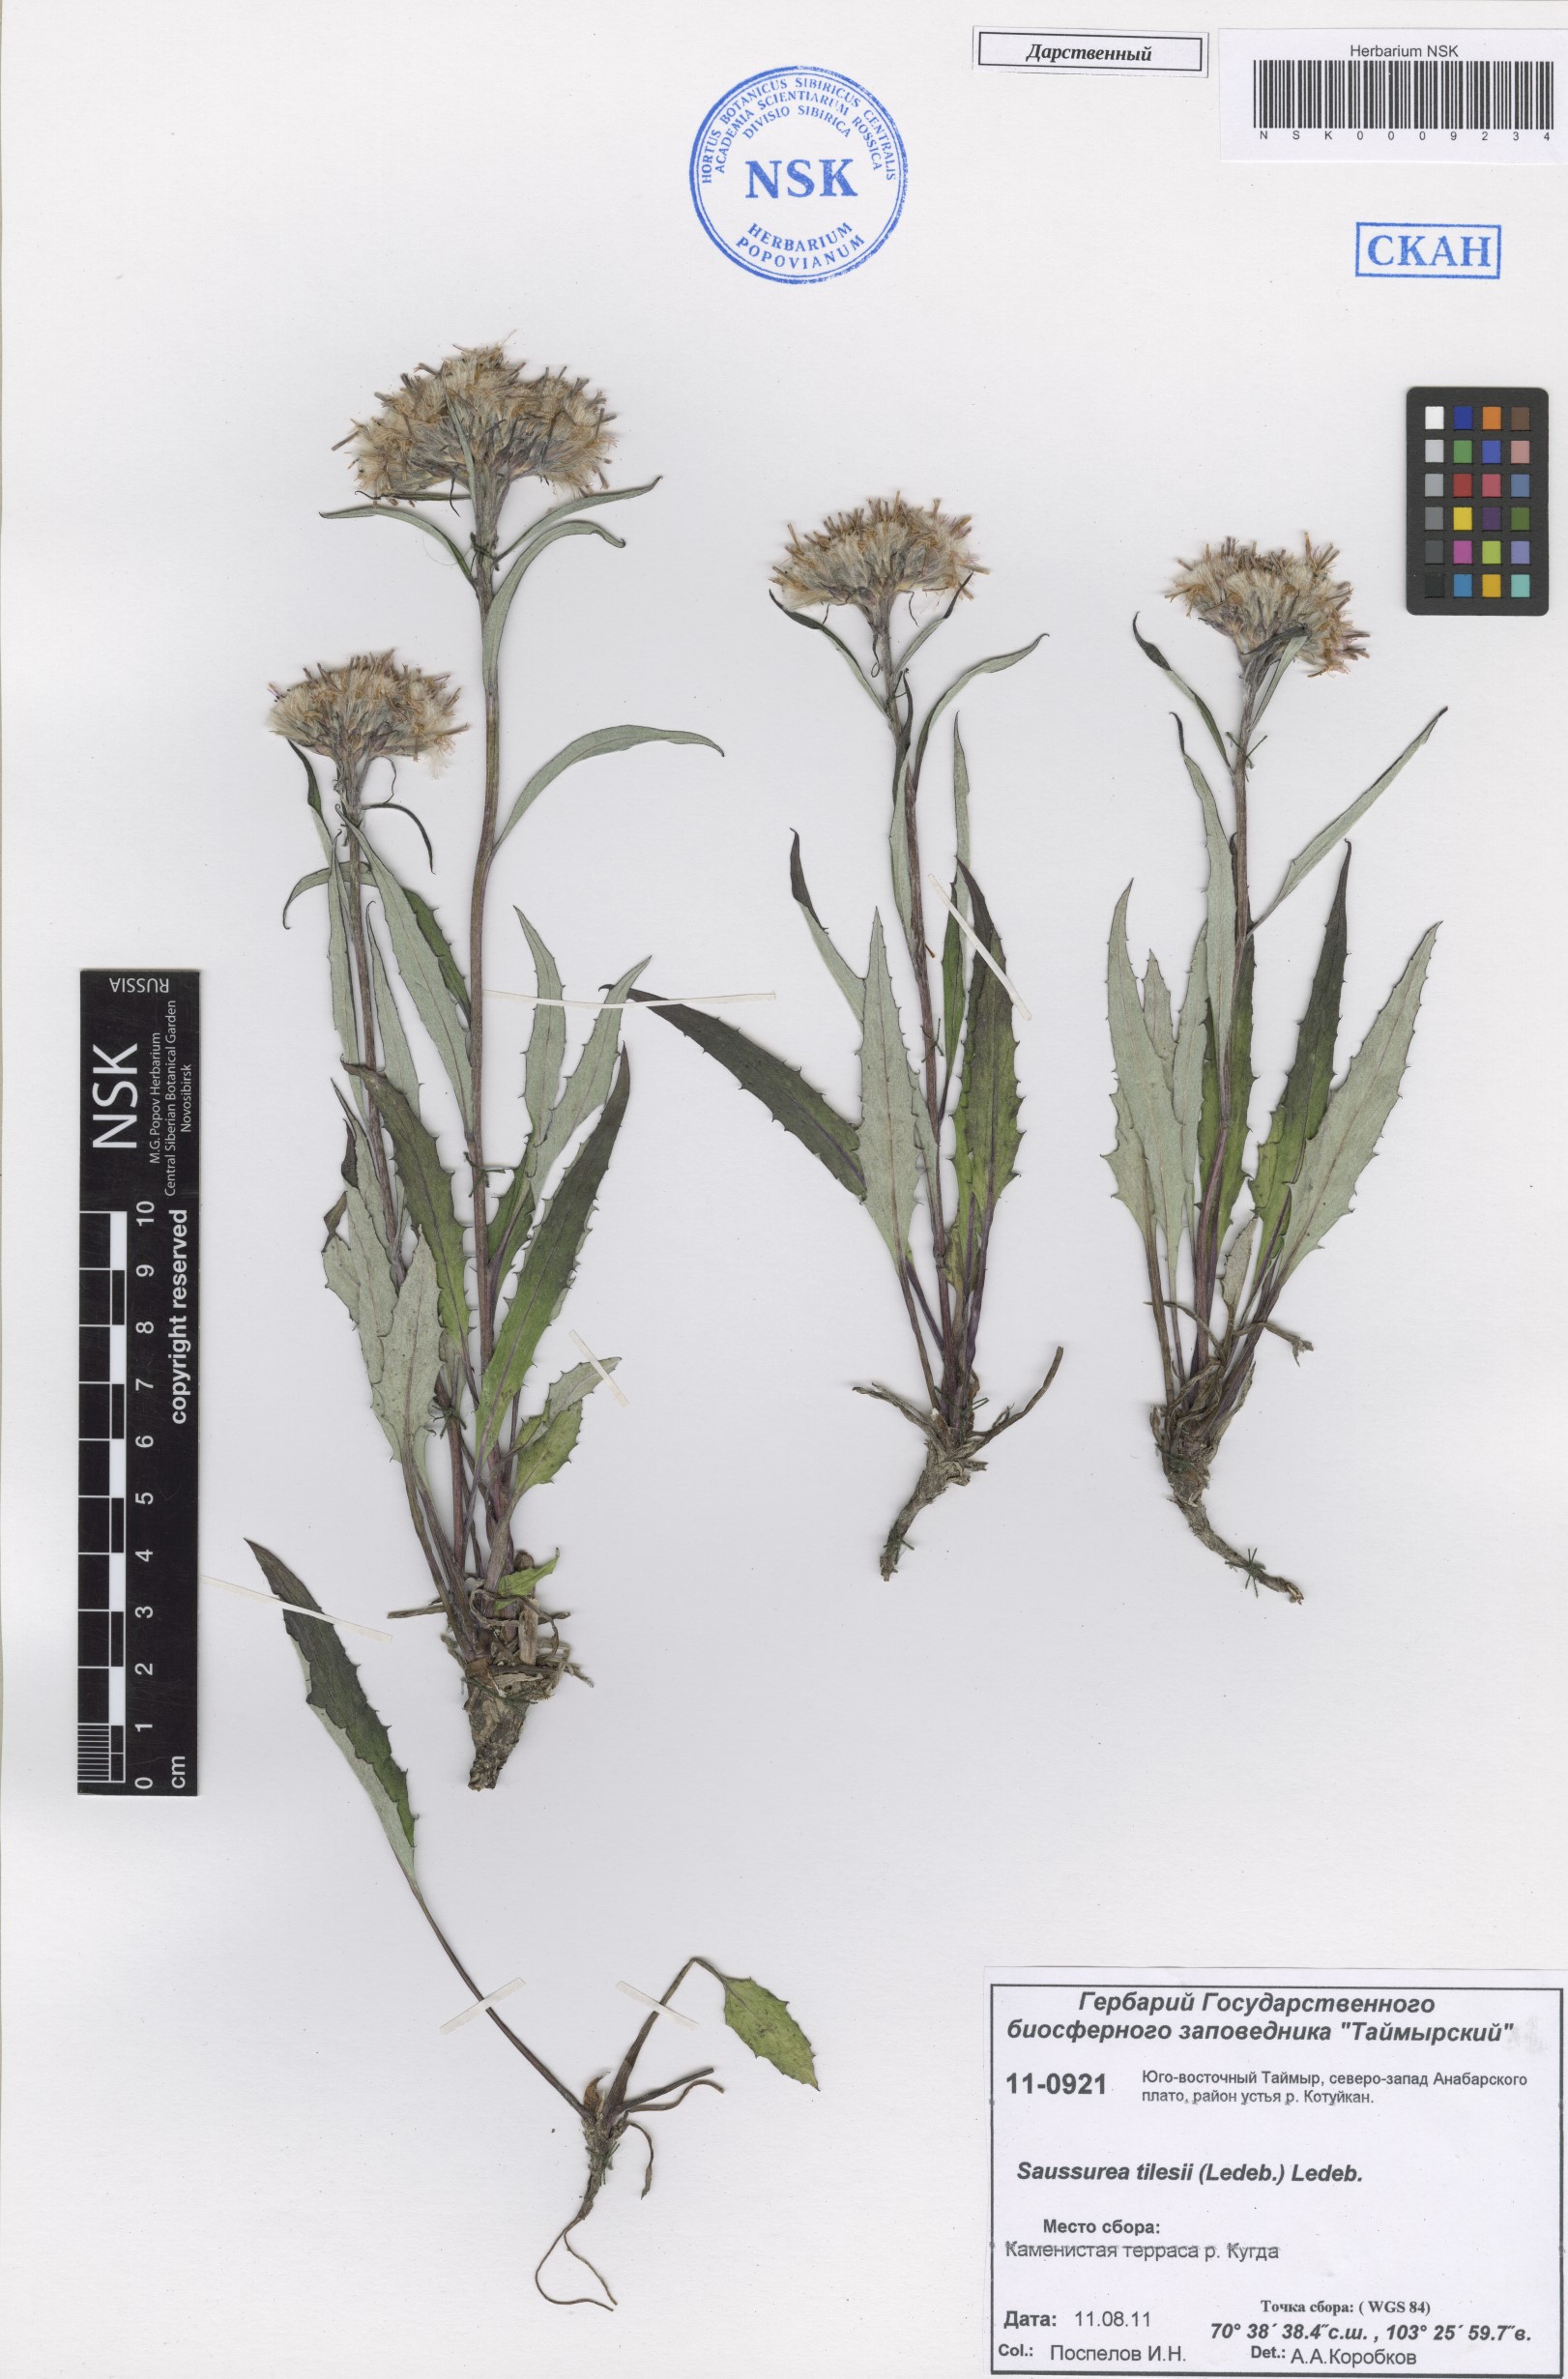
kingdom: Plantae
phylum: Tracheophyta
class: Magnoliopsida
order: Asterales
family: Asteraceae
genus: Saussurea
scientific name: Saussurea tilesii
